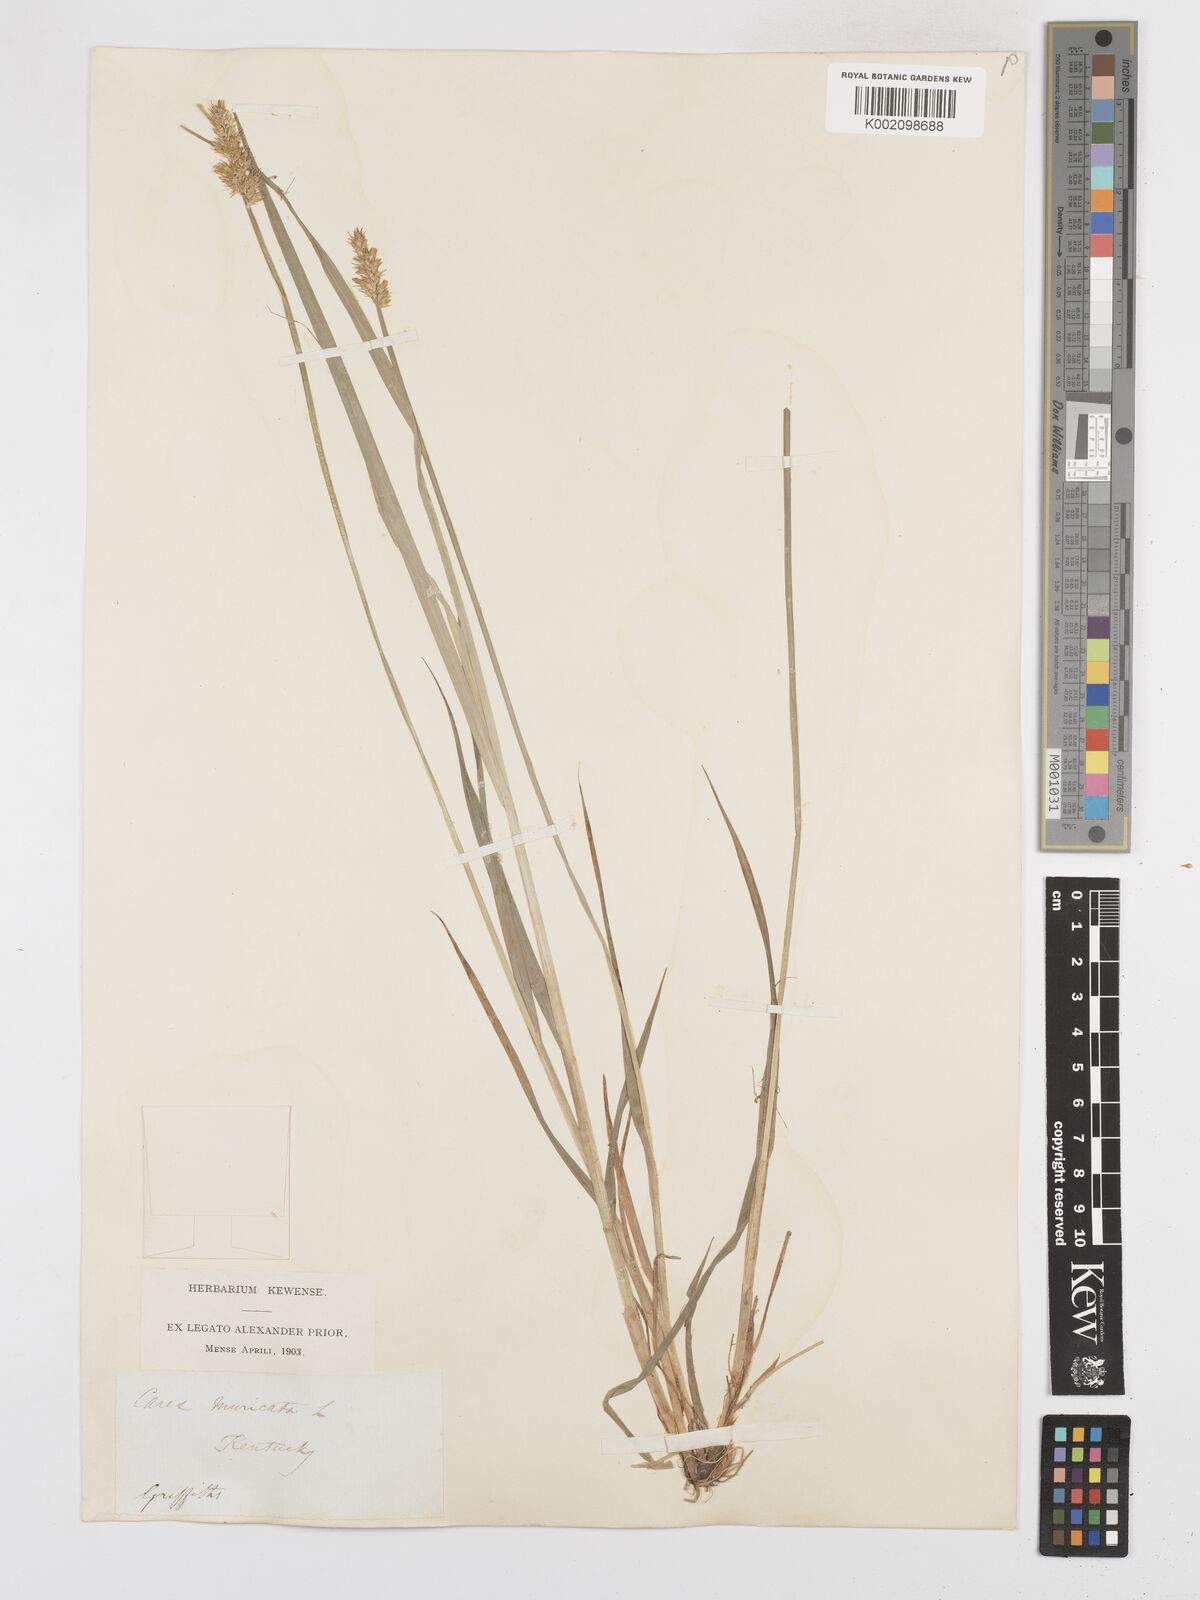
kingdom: Plantae
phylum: Tracheophyta
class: Liliopsida
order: Poales
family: Cyperaceae
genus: Carex
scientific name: Carex spicata
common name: Spiked sedge
